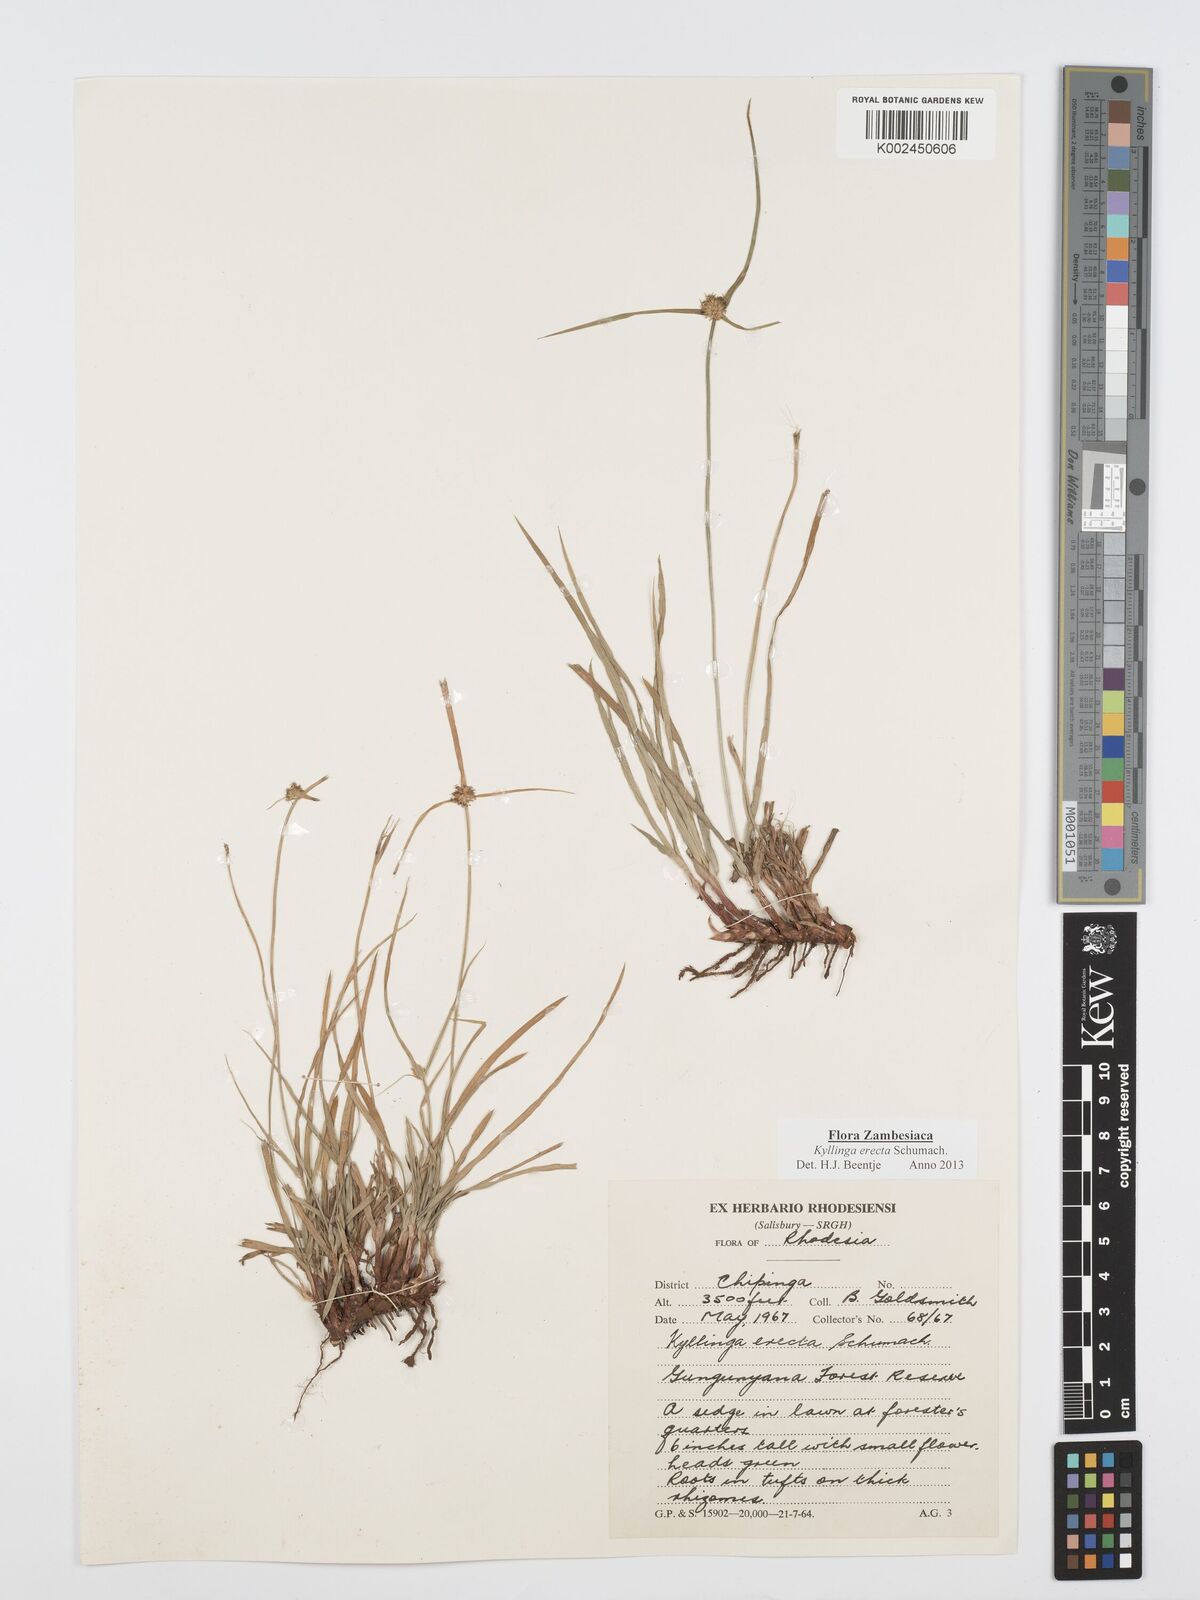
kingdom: Plantae
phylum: Tracheophyta
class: Liliopsida
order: Poales
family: Cyperaceae
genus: Cyperus
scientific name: Cyperus erectus
